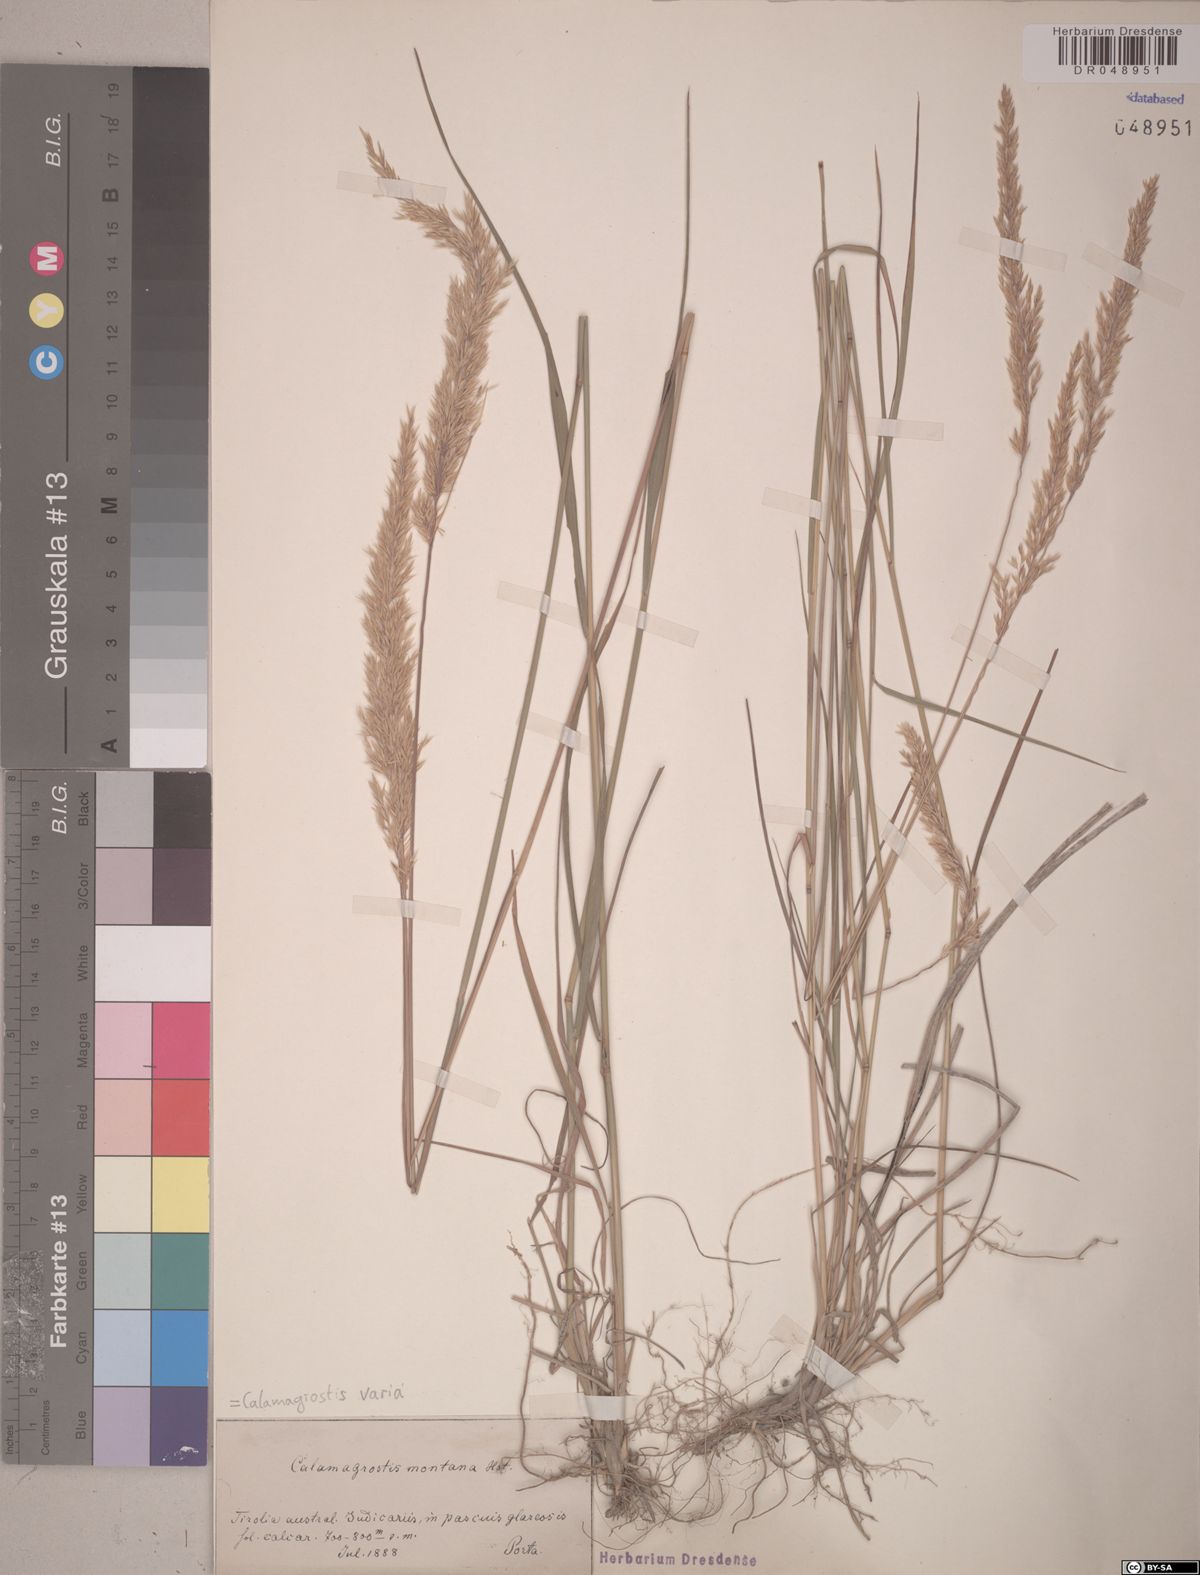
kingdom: Plantae
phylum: Tracheophyta
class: Liliopsida
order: Poales
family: Poaceae
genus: Calamagrostis
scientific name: Calamagrostis varia
